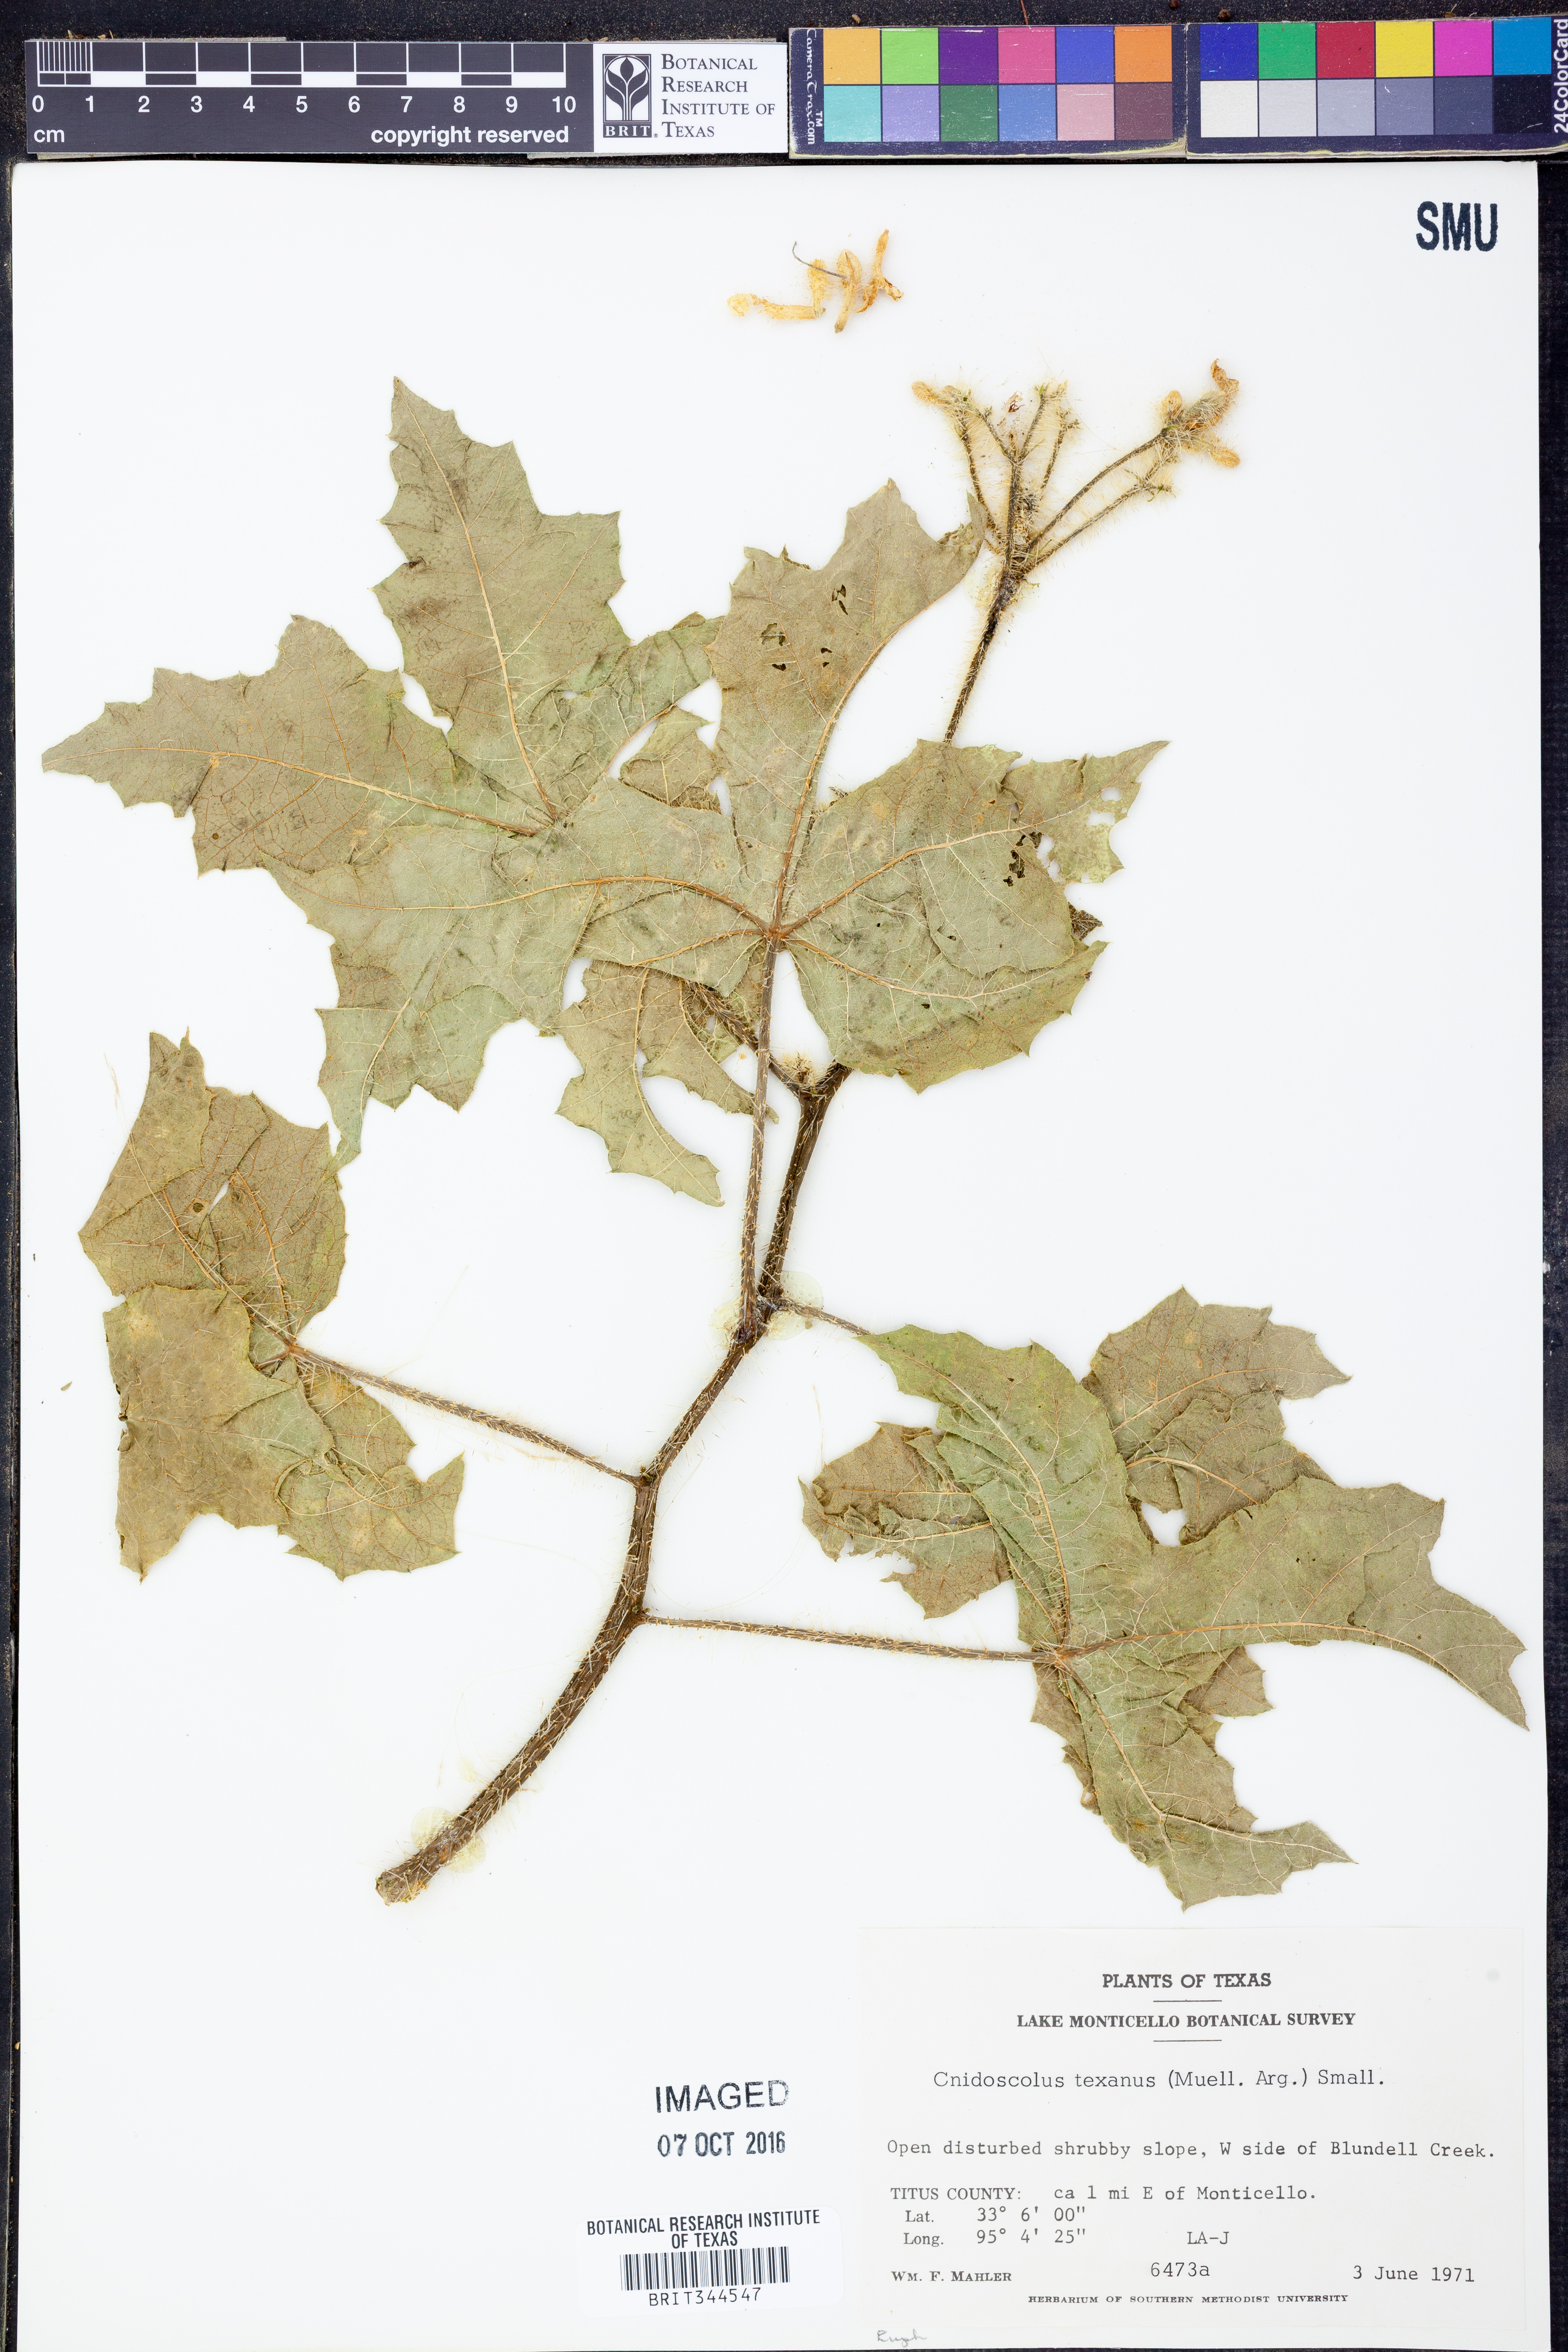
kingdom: Plantae
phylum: Tracheophyta
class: Magnoliopsida
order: Malpighiales
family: Euphorbiaceae
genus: Cnidoscolus
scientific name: Cnidoscolus texanus
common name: Texas bull-nettle
